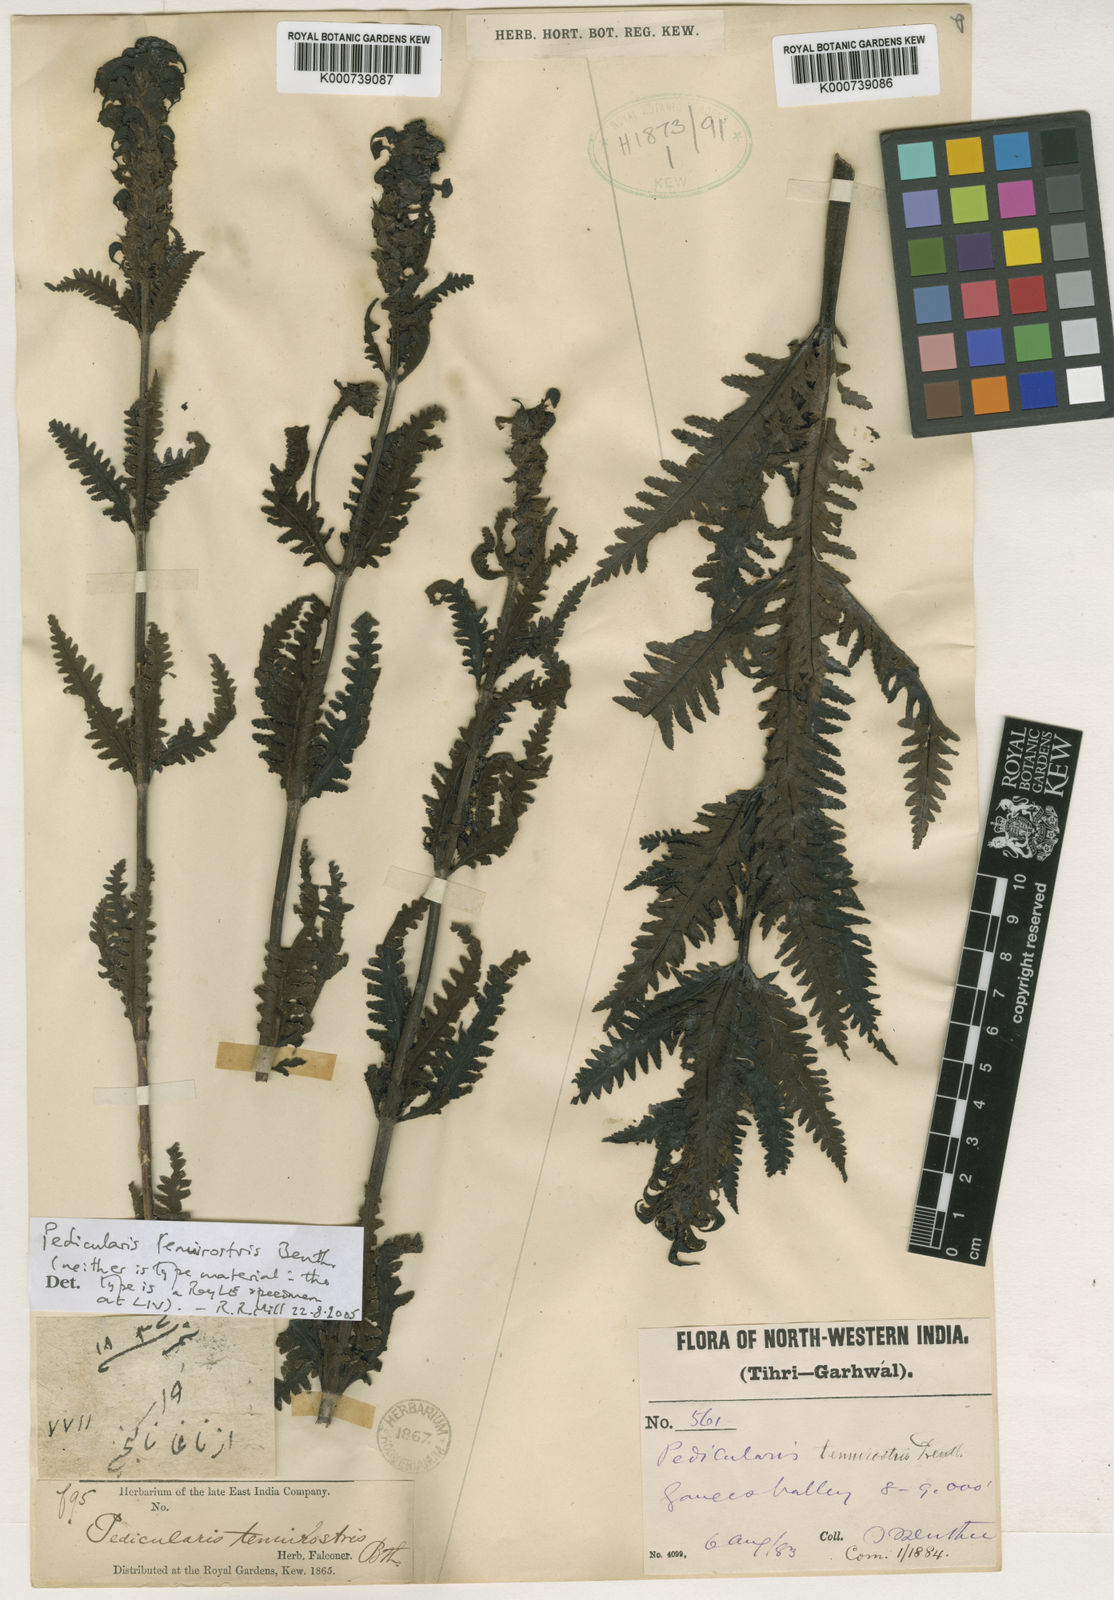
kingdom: Plantae
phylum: Tracheophyta
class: Magnoliopsida
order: Lamiales
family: Orobanchaceae
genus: Pedicularis
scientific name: Pedicularis tenuirostris
